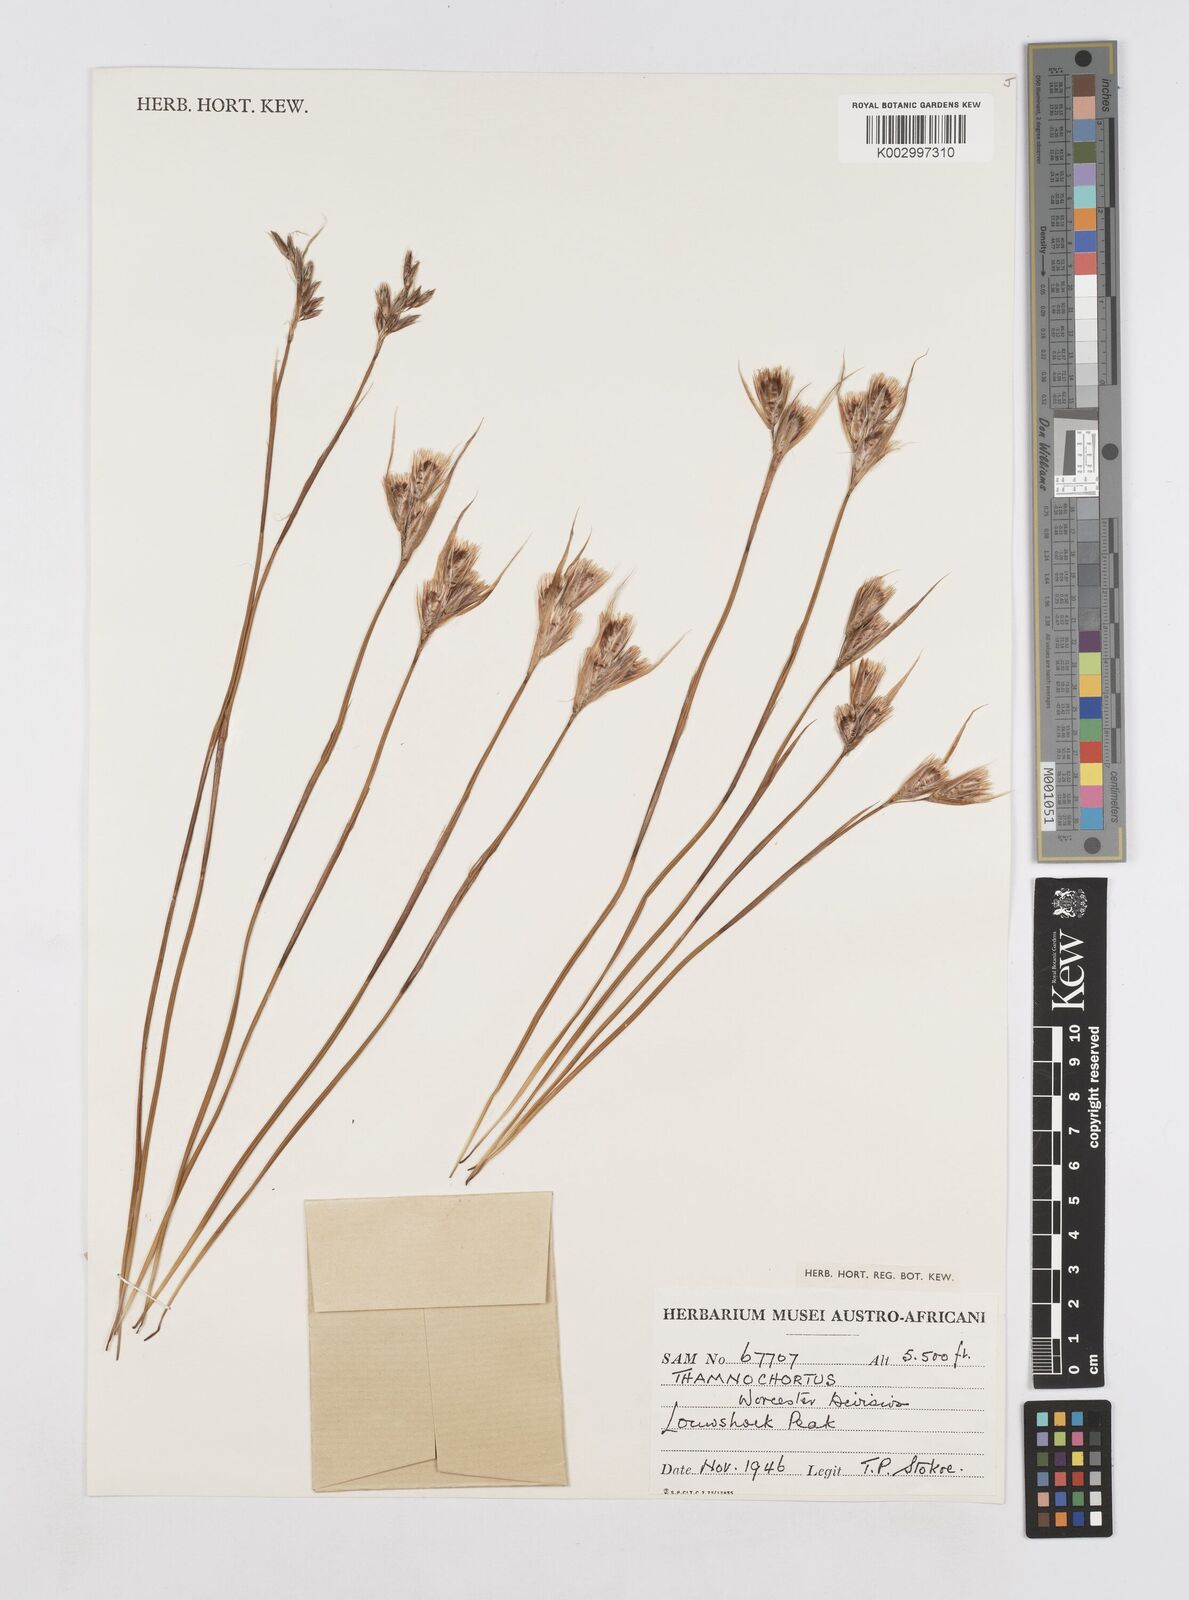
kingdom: Plantae
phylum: Tracheophyta
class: Liliopsida
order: Poales
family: Restionaceae
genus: Thamnochortus
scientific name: Thamnochortus stokoei
